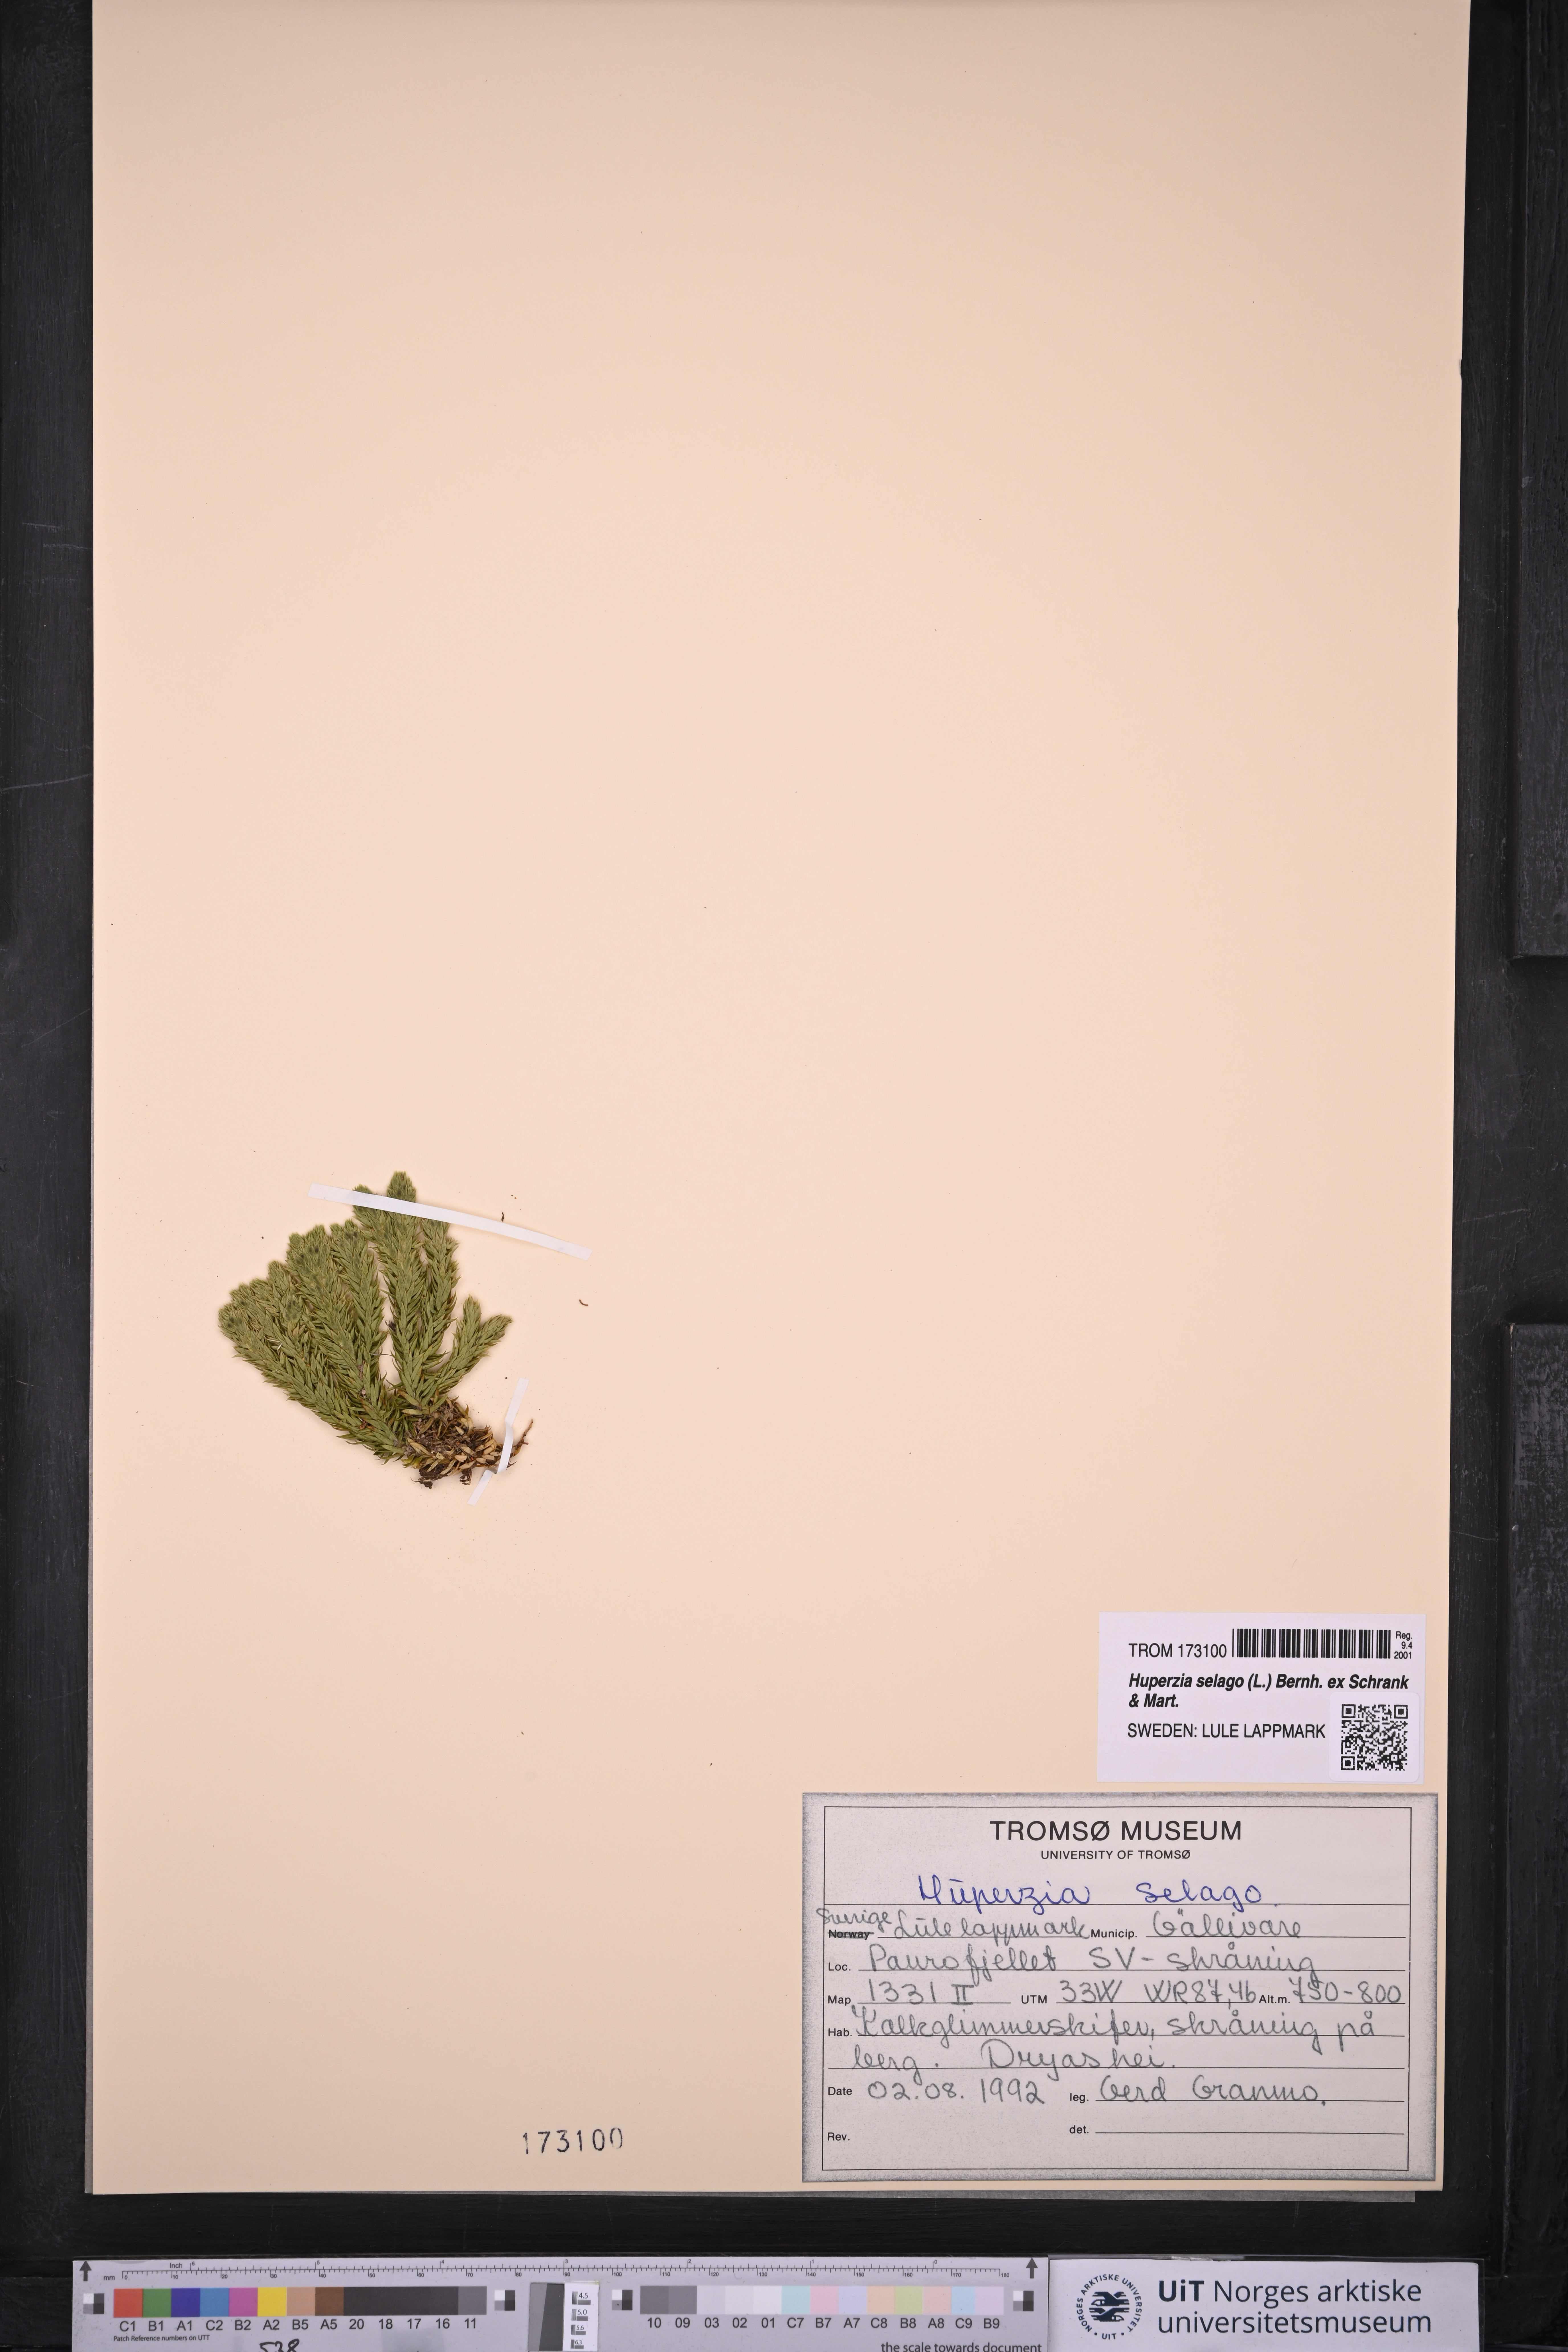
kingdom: Plantae
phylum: Tracheophyta
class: Lycopodiopsida
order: Lycopodiales
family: Lycopodiaceae
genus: Huperzia
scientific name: Huperzia selago
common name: Northern firmoss
